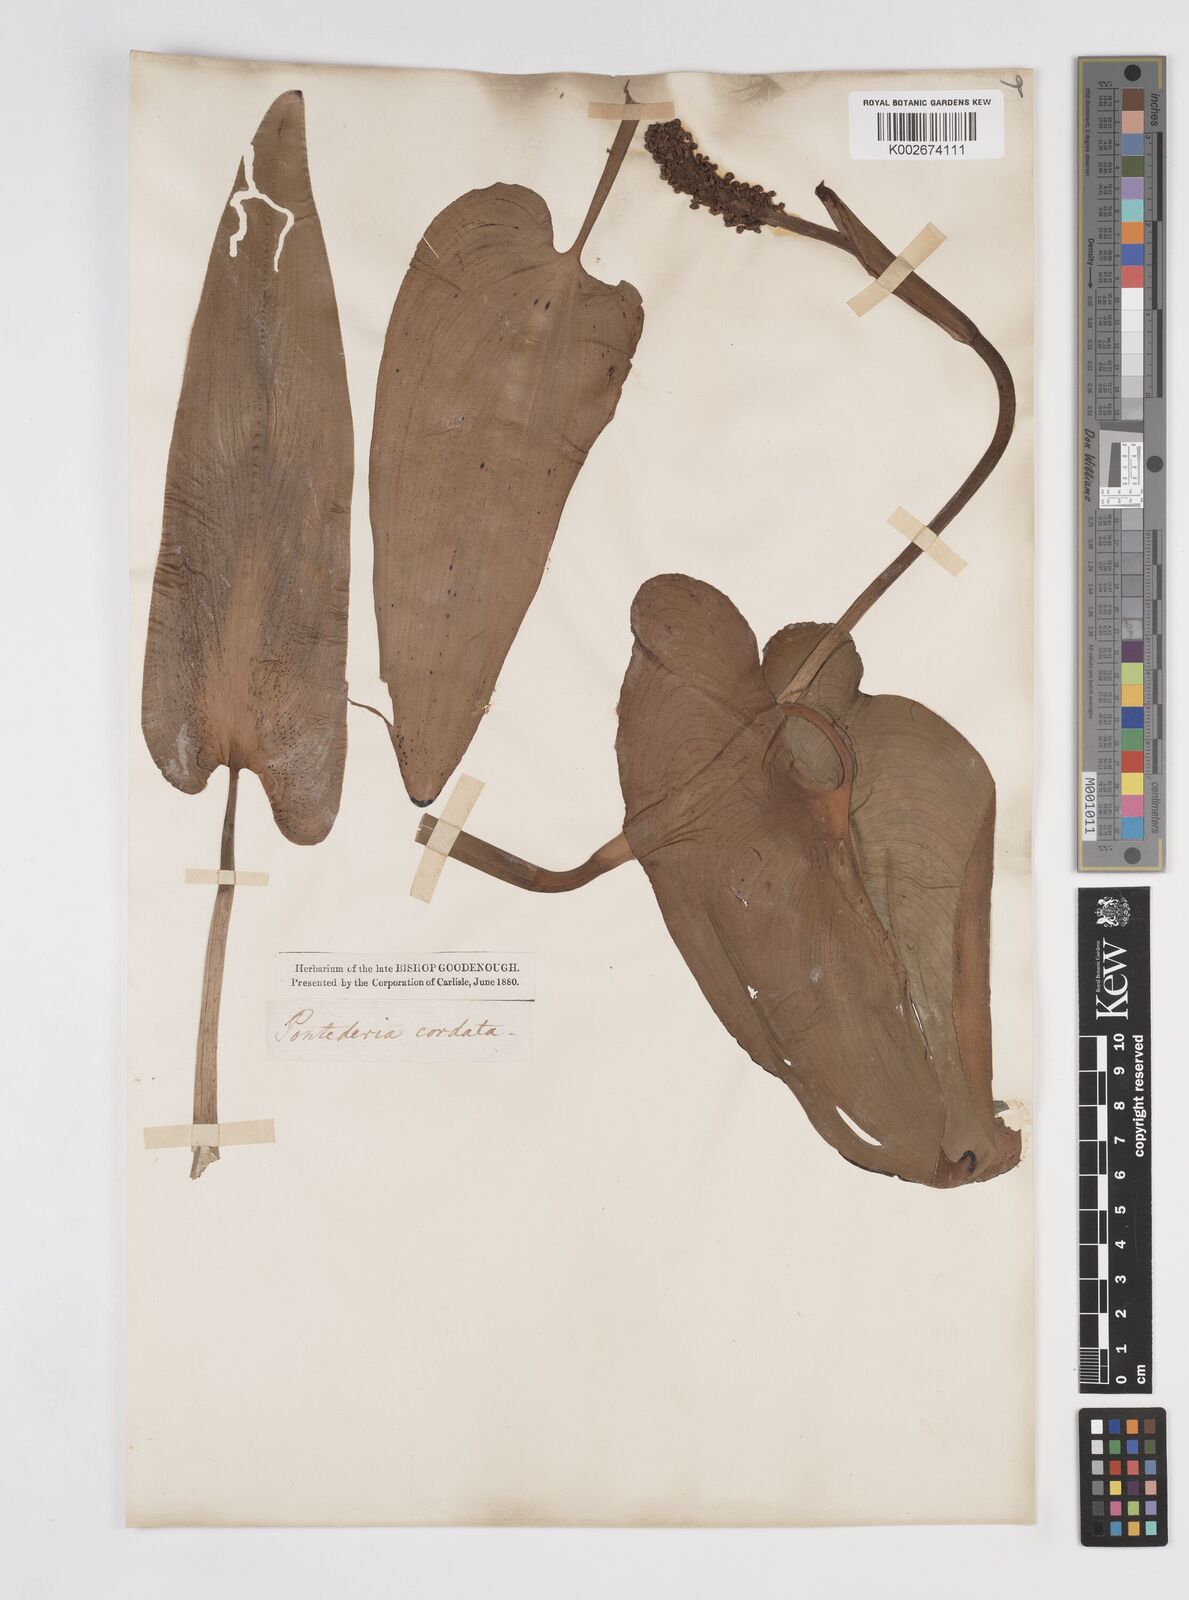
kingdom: Plantae
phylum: Tracheophyta
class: Liliopsida
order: Commelinales
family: Pontederiaceae
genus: Pontederia
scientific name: Pontederia cordata
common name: Pickerelweed
